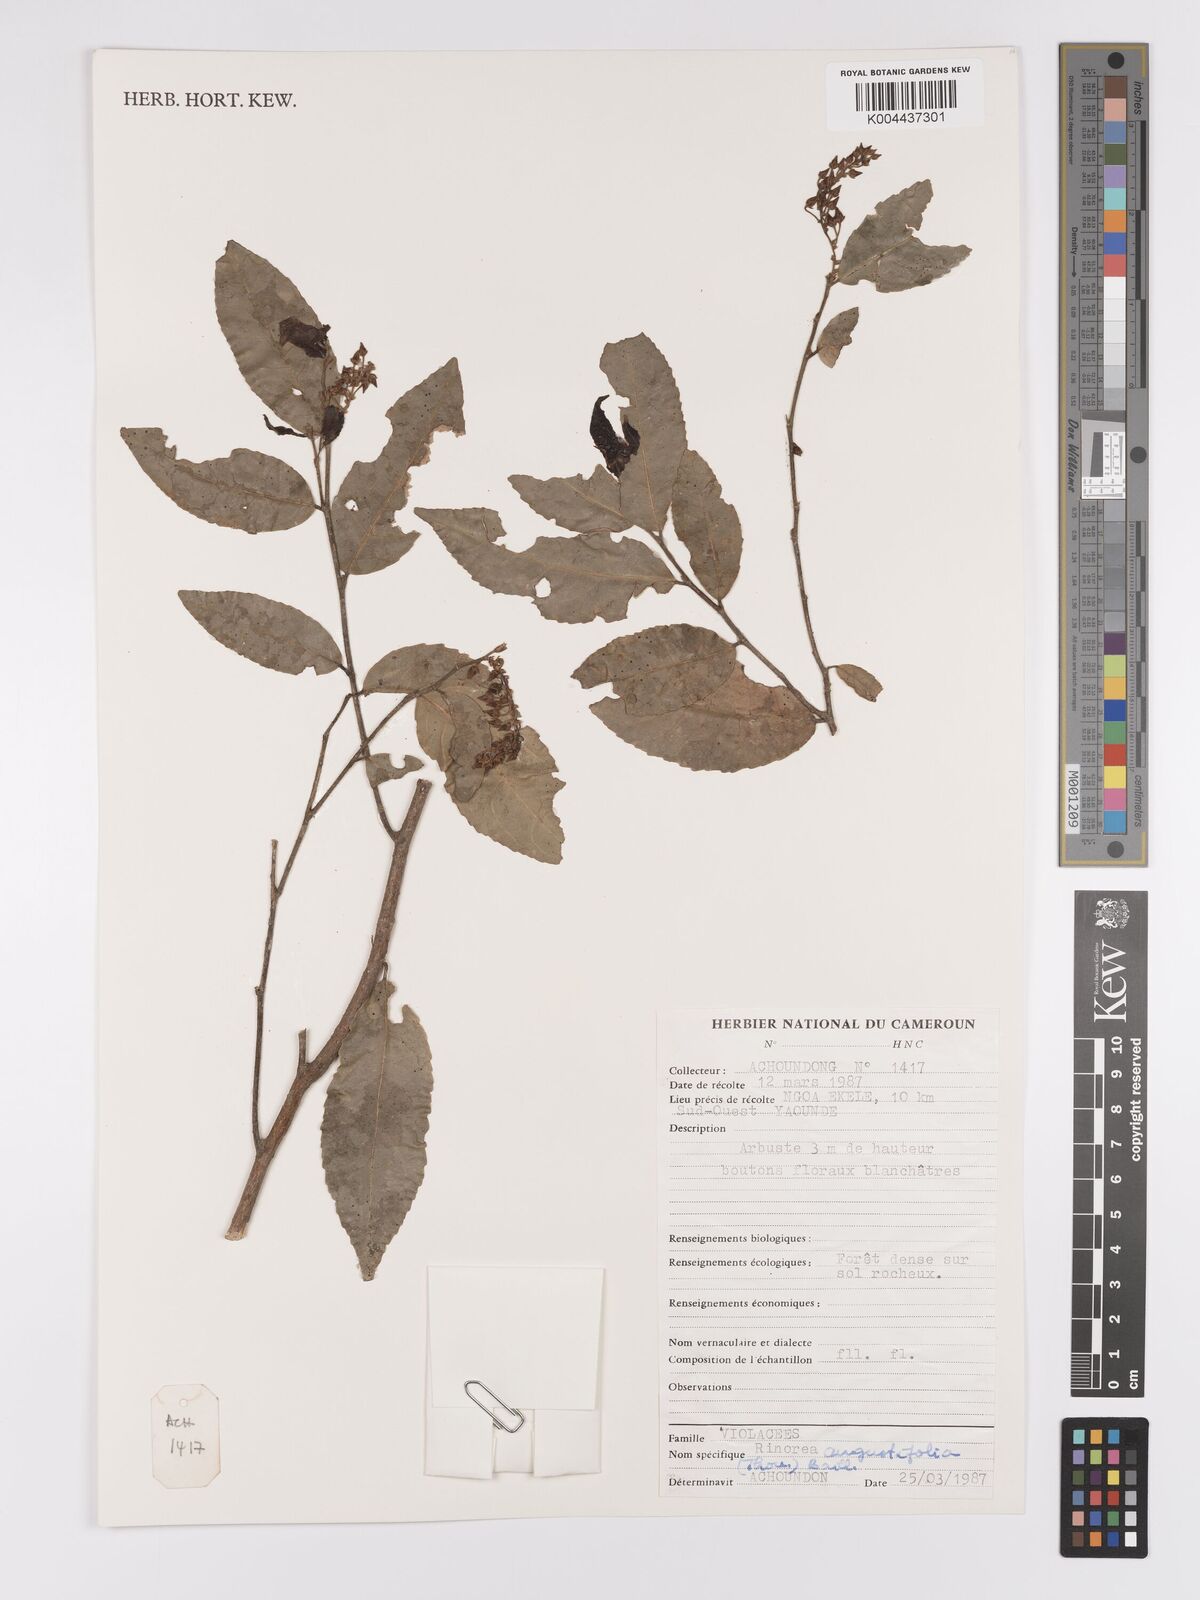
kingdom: Plantae
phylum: Tracheophyta
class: Magnoliopsida
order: Malpighiales
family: Violaceae
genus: Rinorea
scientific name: Rinorea angustifolia
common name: White violet-bush
